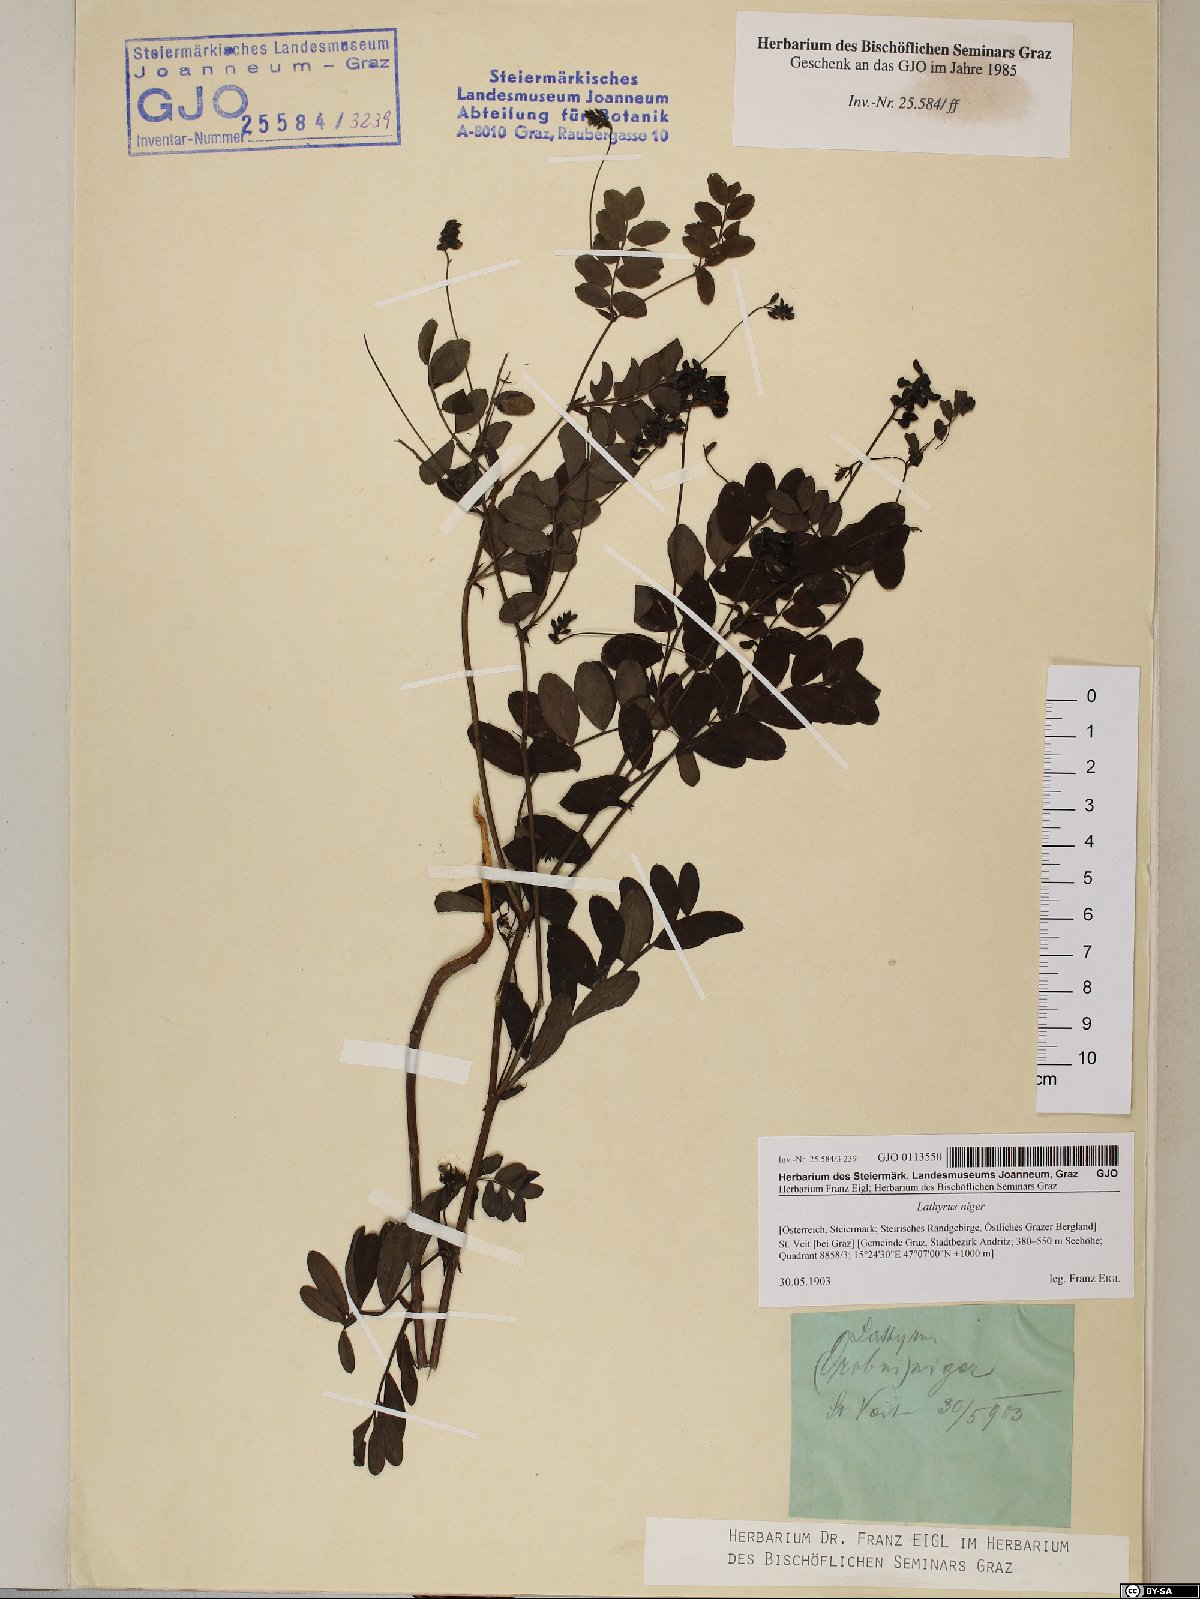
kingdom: Plantae
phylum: Tracheophyta
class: Magnoliopsida
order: Fabales
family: Fabaceae
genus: Lathyrus
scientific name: Lathyrus niger
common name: Black pea
